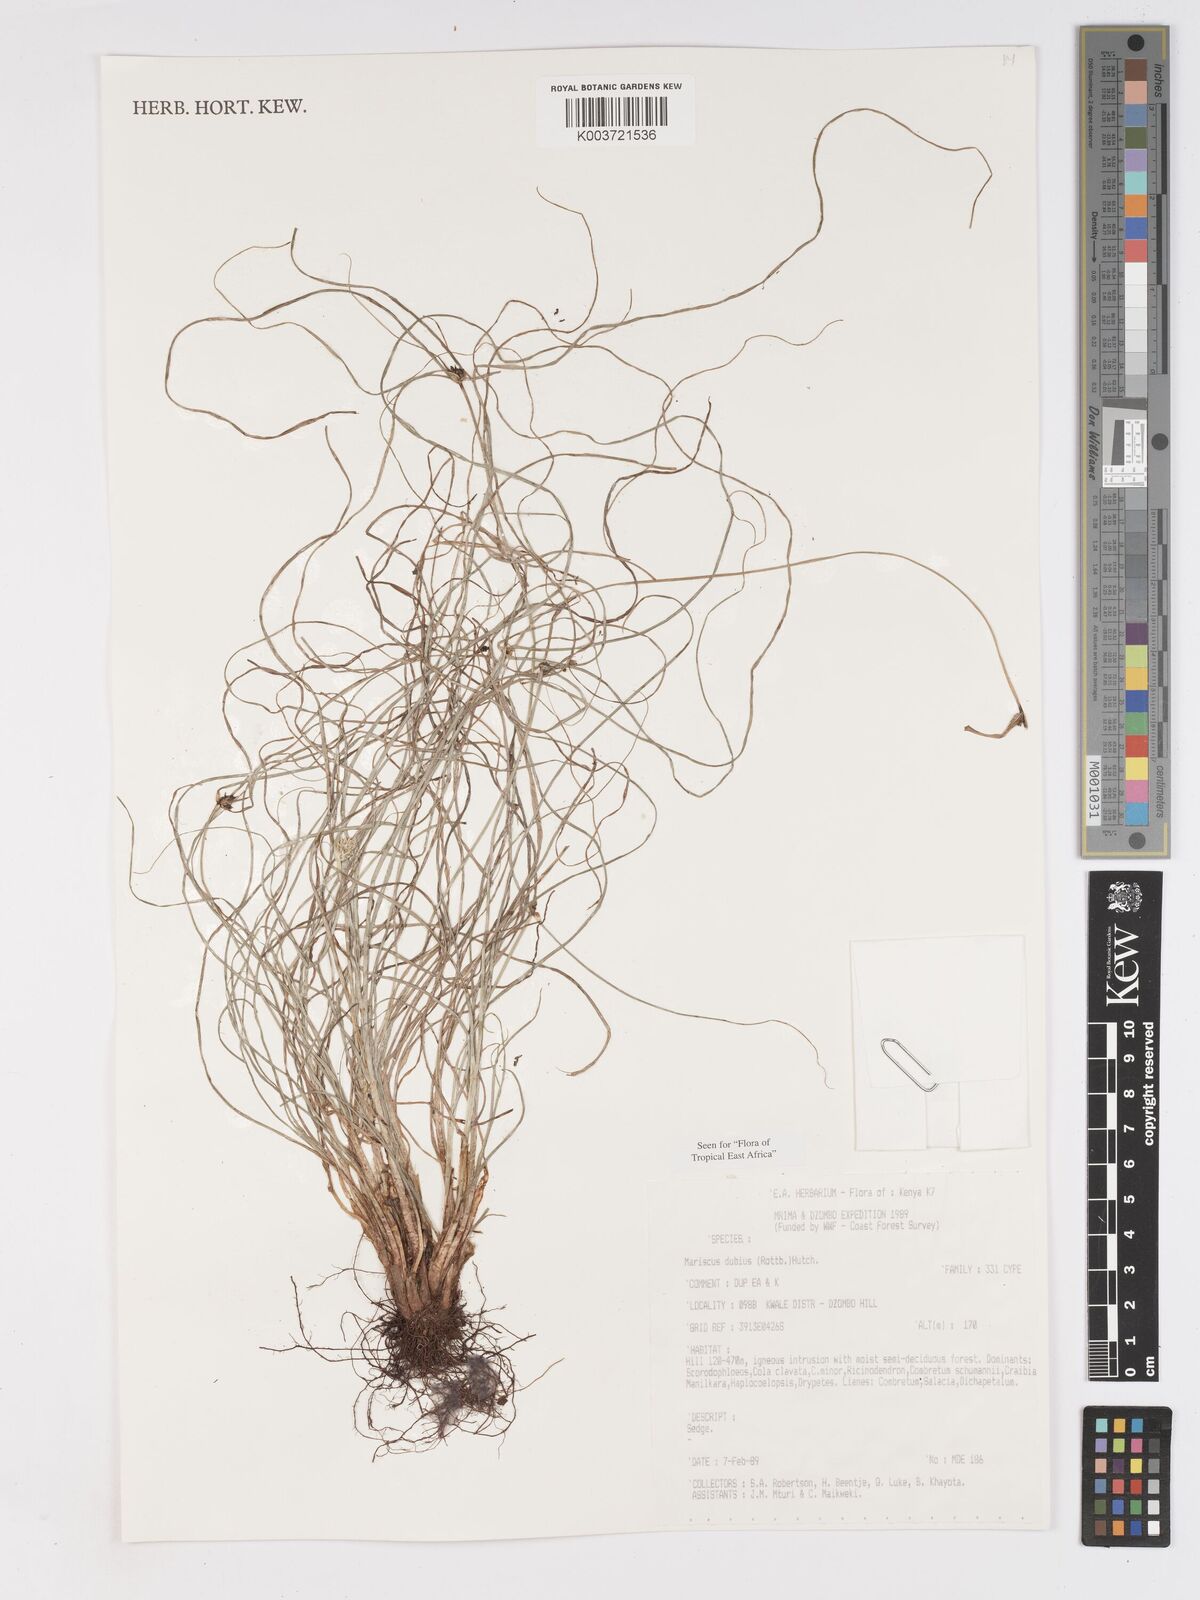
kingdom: Plantae
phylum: Tracheophyta
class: Liliopsida
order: Poales
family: Cyperaceae
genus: Cyperus
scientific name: Cyperus dubius
